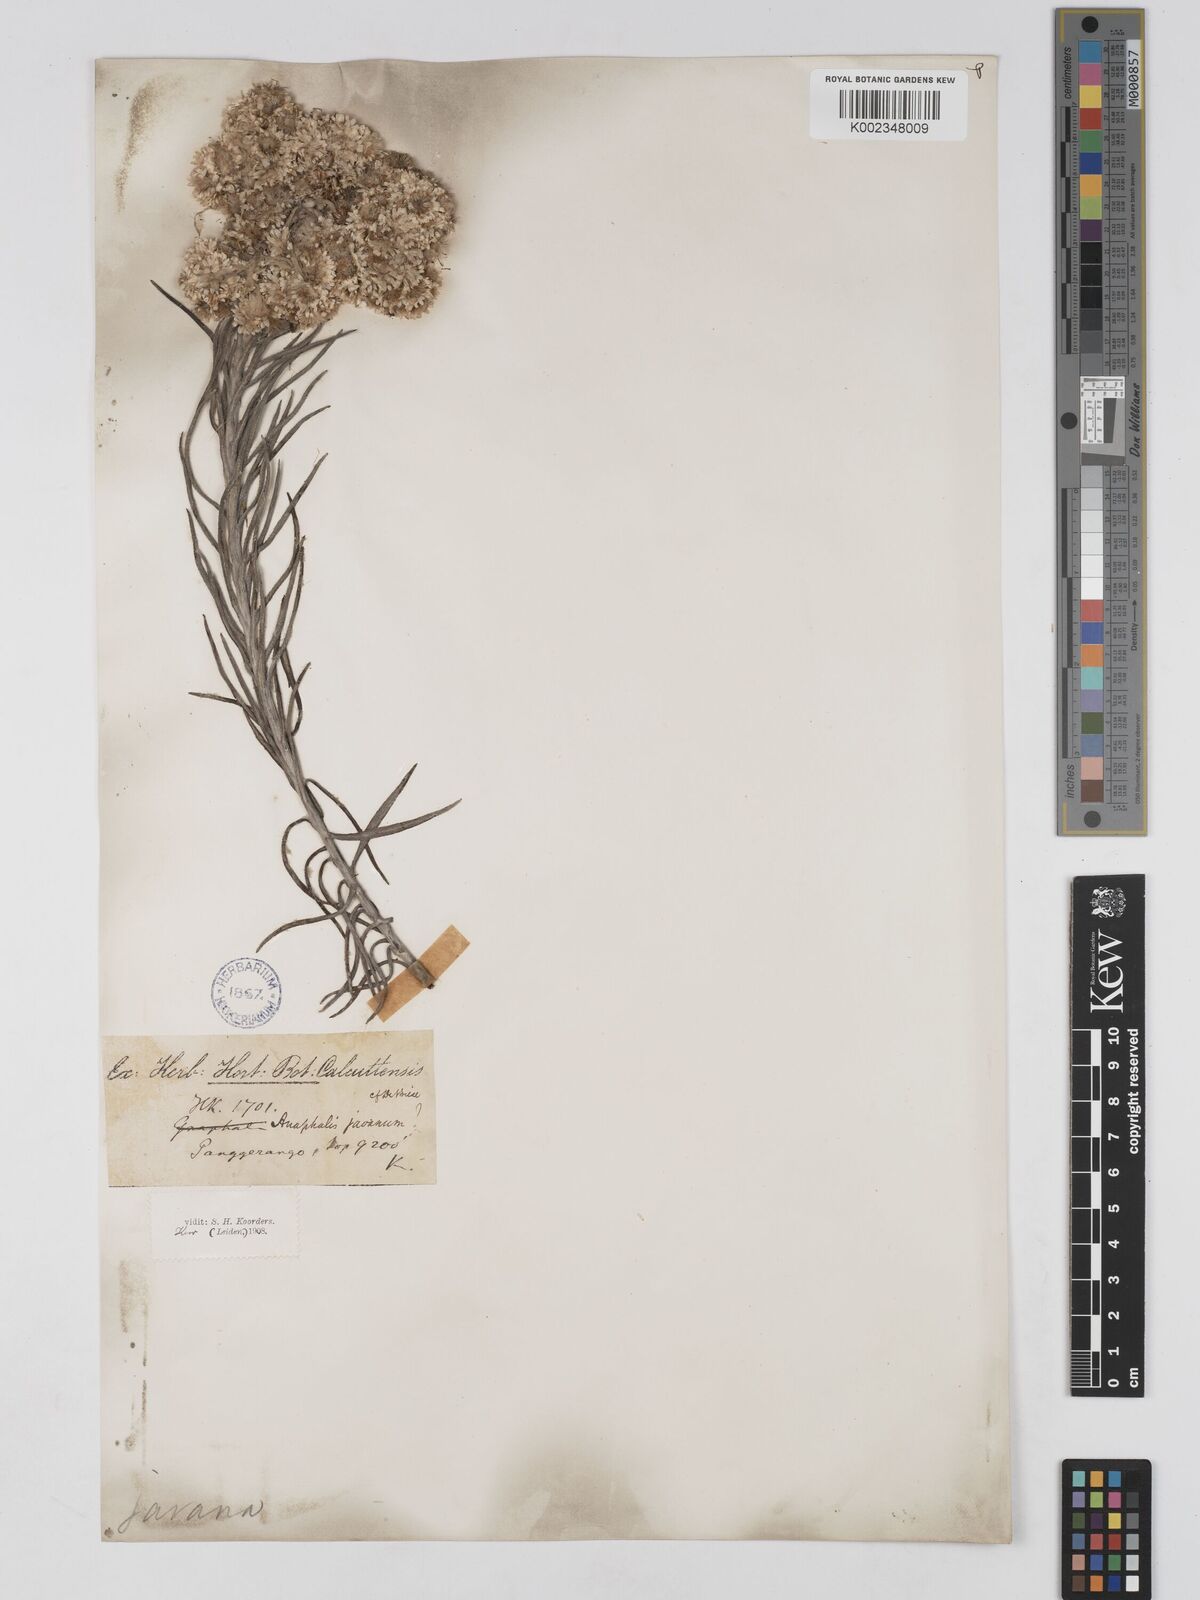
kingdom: Plantae
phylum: Tracheophyta
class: Magnoliopsida
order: Asterales
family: Asteraceae
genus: Anaphalis
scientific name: Anaphalis javanica
